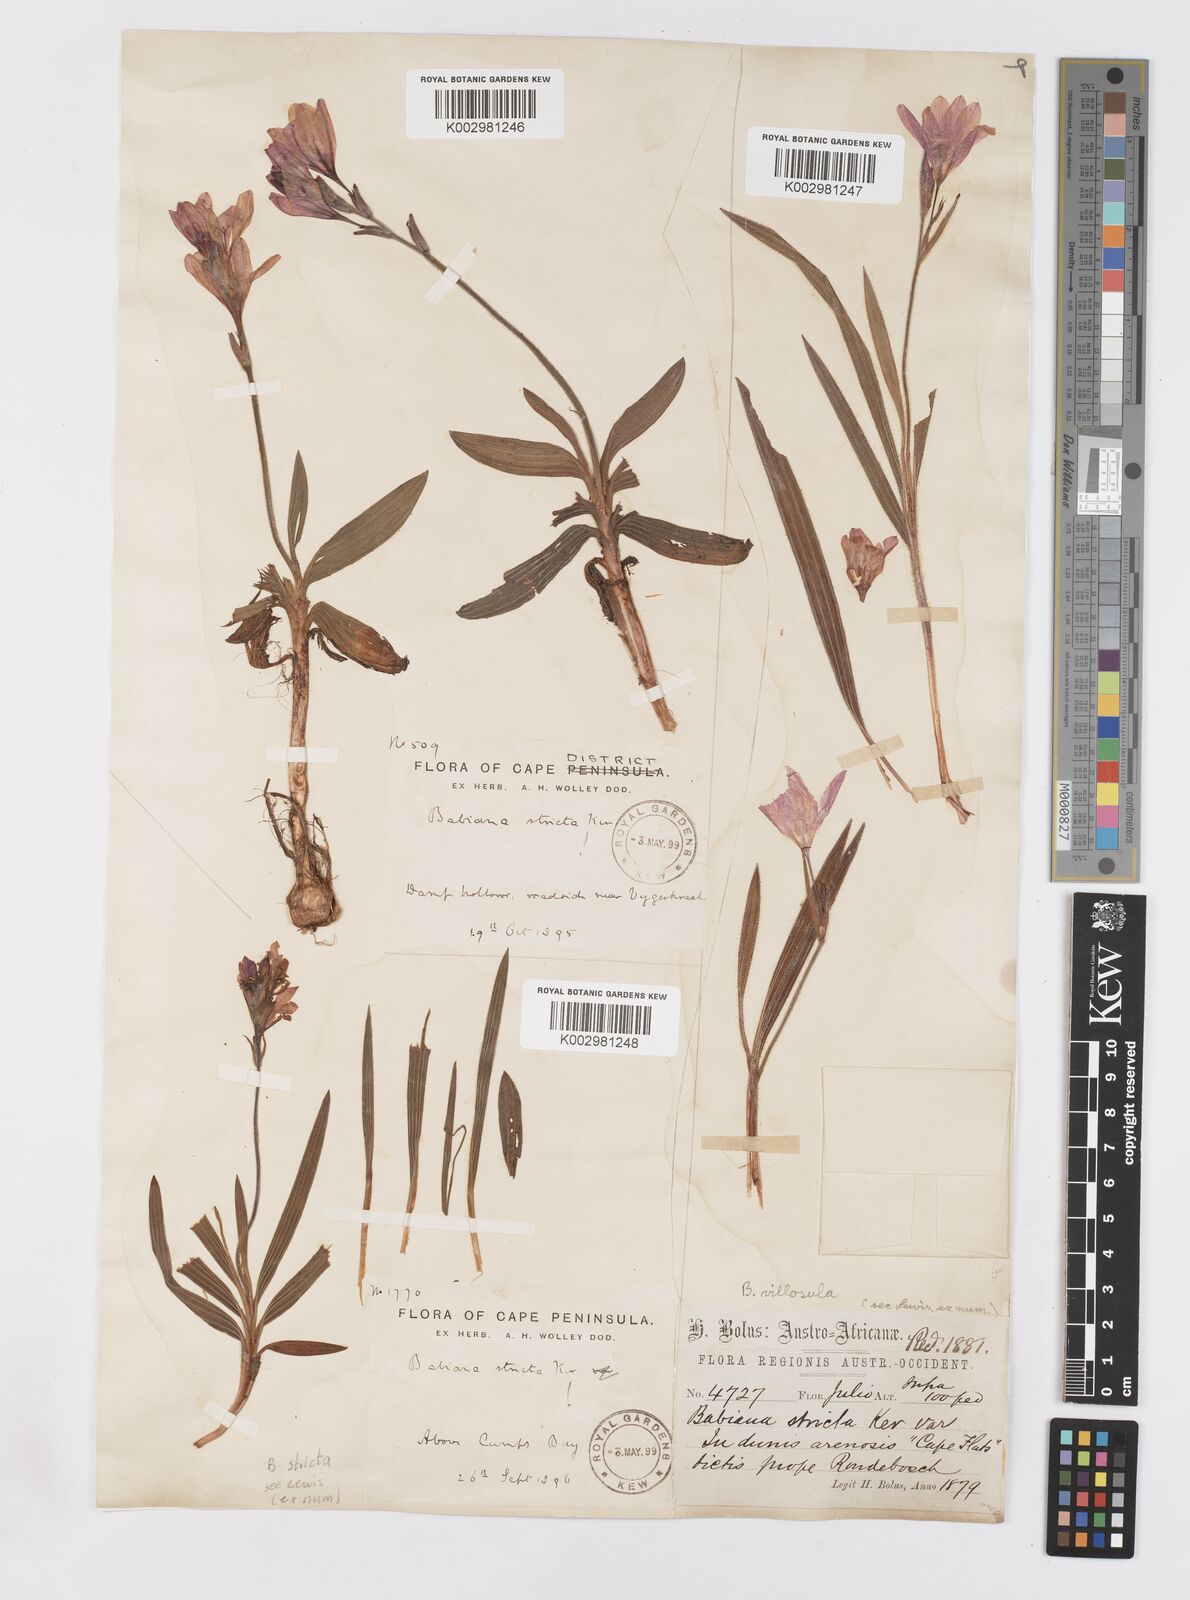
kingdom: Plantae
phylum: Tracheophyta
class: Liliopsida
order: Asparagales
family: Iridaceae
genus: Babiana
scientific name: Babiana villosula
